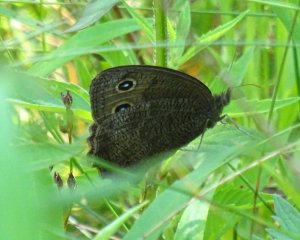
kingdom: Animalia
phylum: Arthropoda
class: Insecta
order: Lepidoptera
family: Nymphalidae
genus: Cercyonis
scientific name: Cercyonis pegala
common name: Common Wood-Nymph
